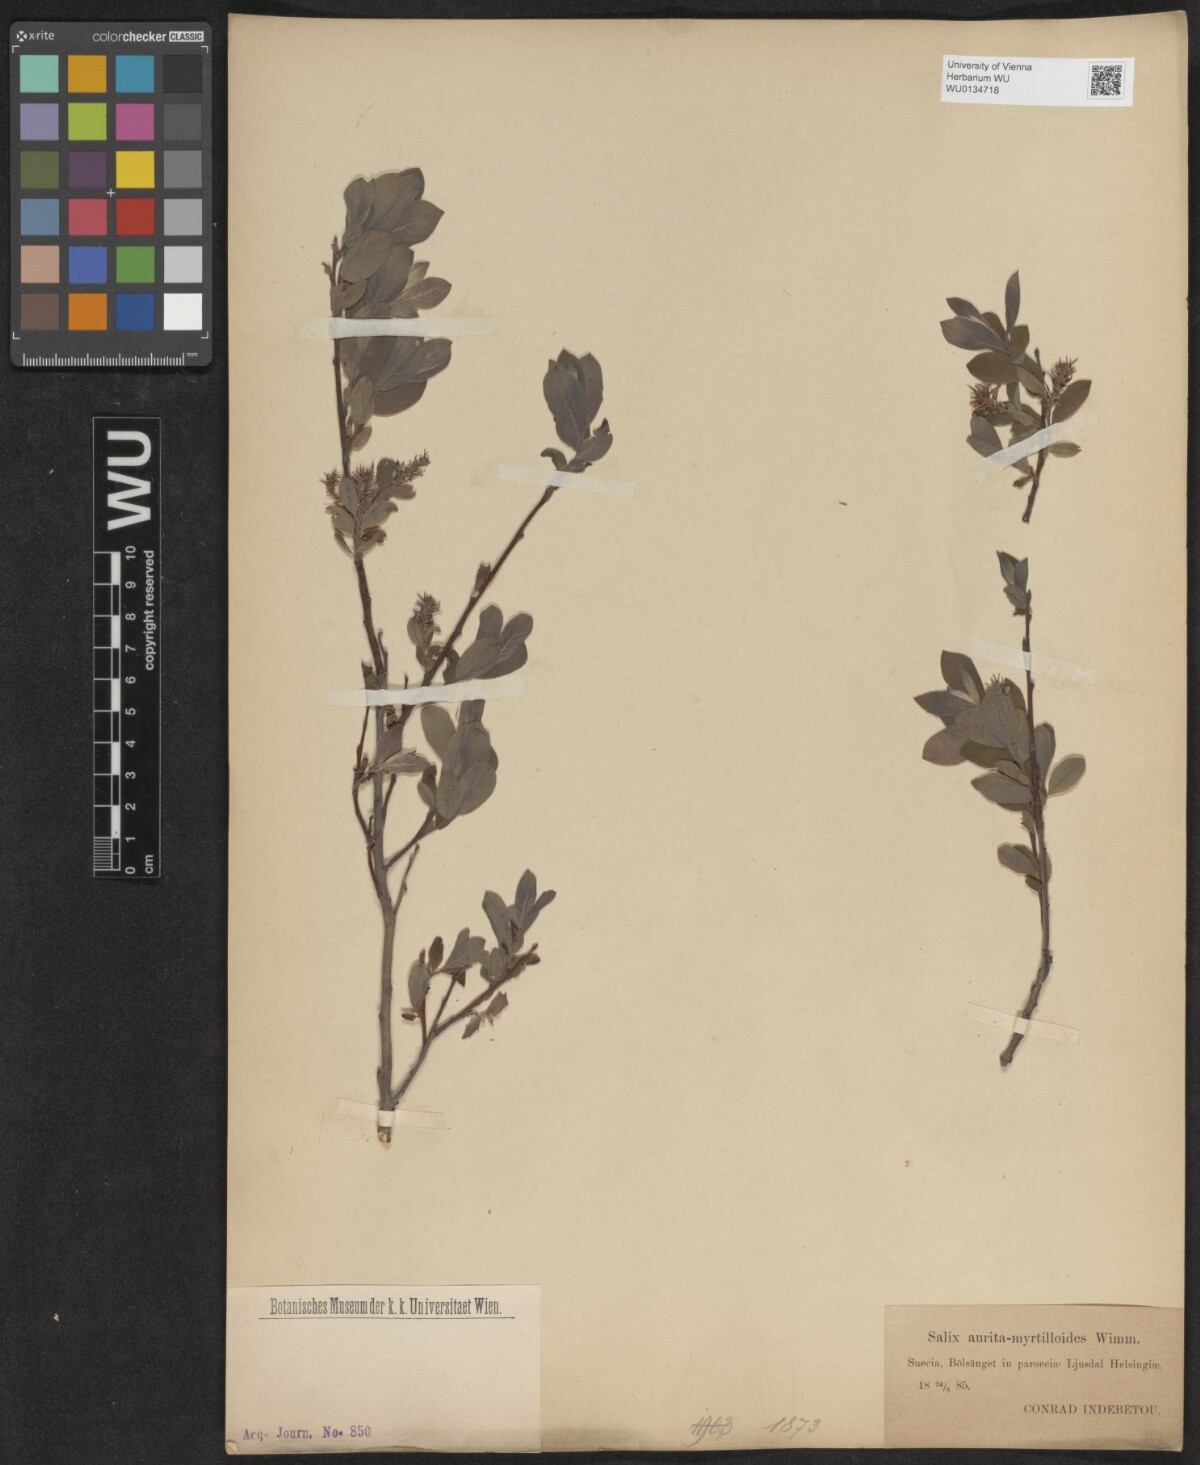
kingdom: Plantae
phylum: Tracheophyta
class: Magnoliopsida
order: Malpighiales
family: Salicaceae
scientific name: Salicaceae
